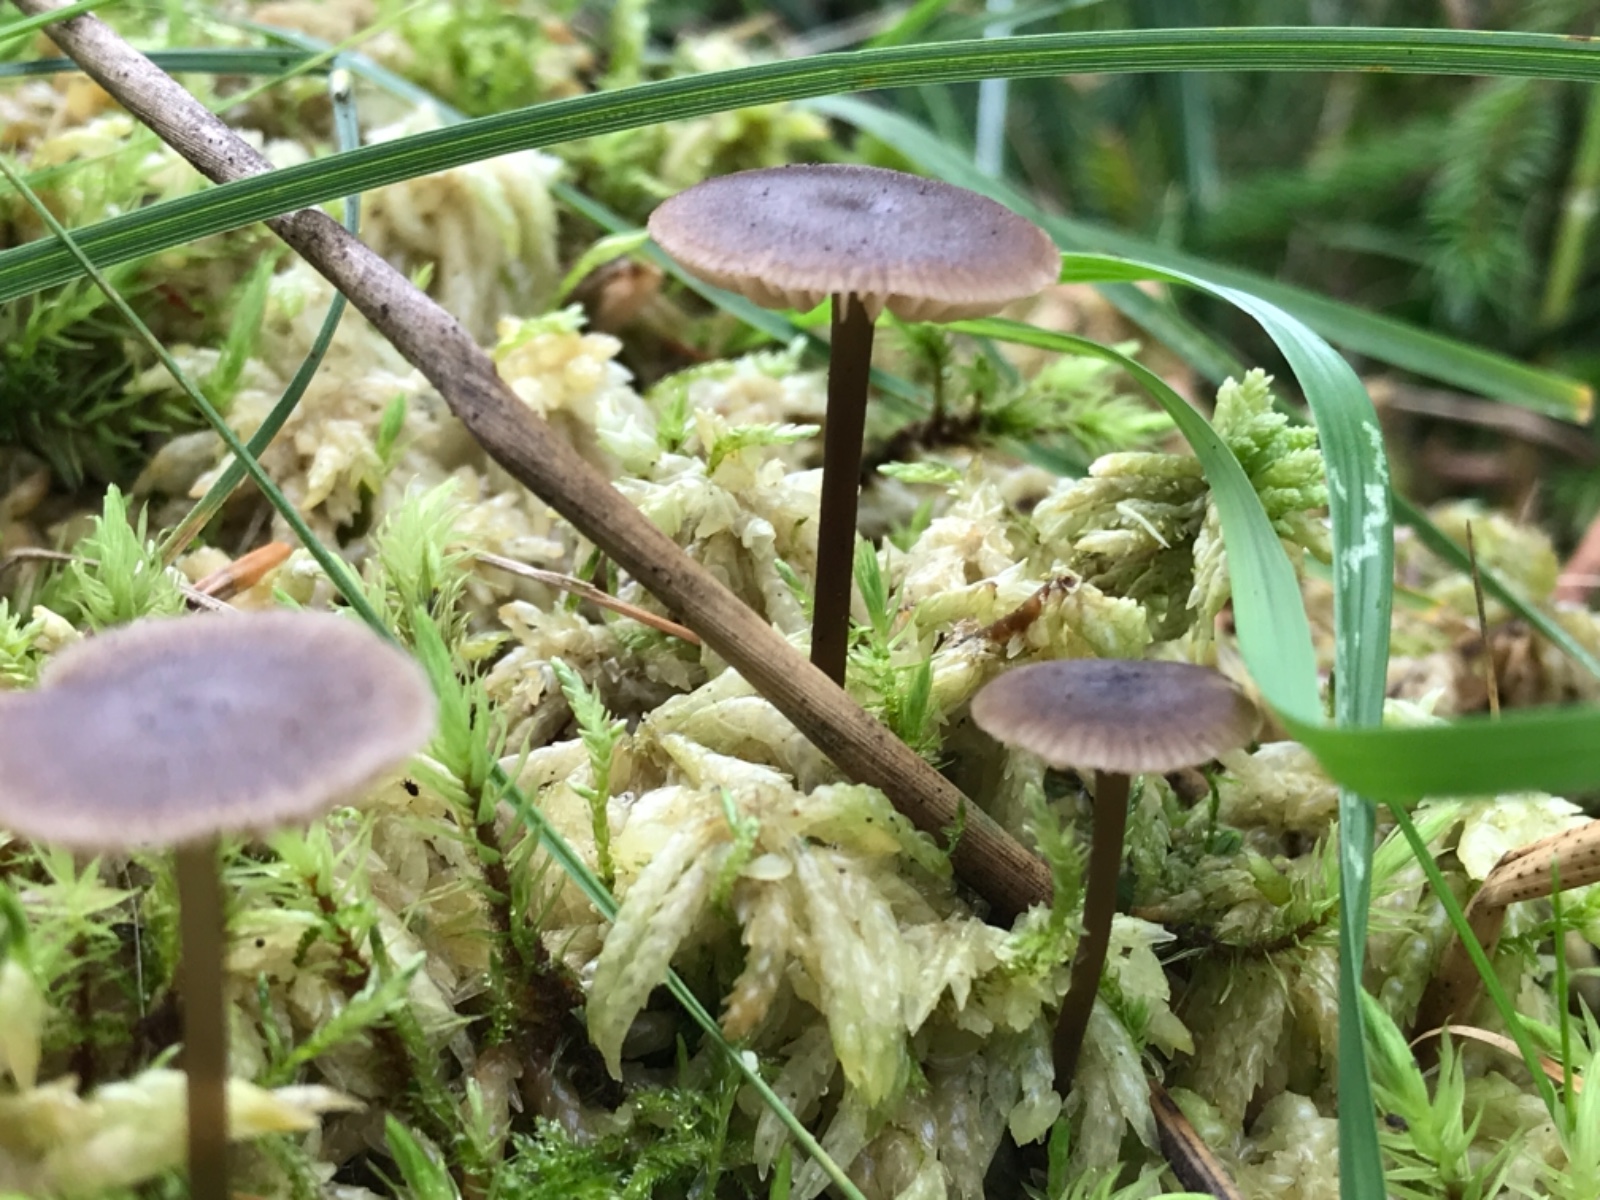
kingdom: Fungi
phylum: Basidiomycota
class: Agaricomycetes
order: Agaricales
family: Lyophyllaceae
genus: Sphagnurus
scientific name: Sphagnurus paluster
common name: tørvemos-gråblad
